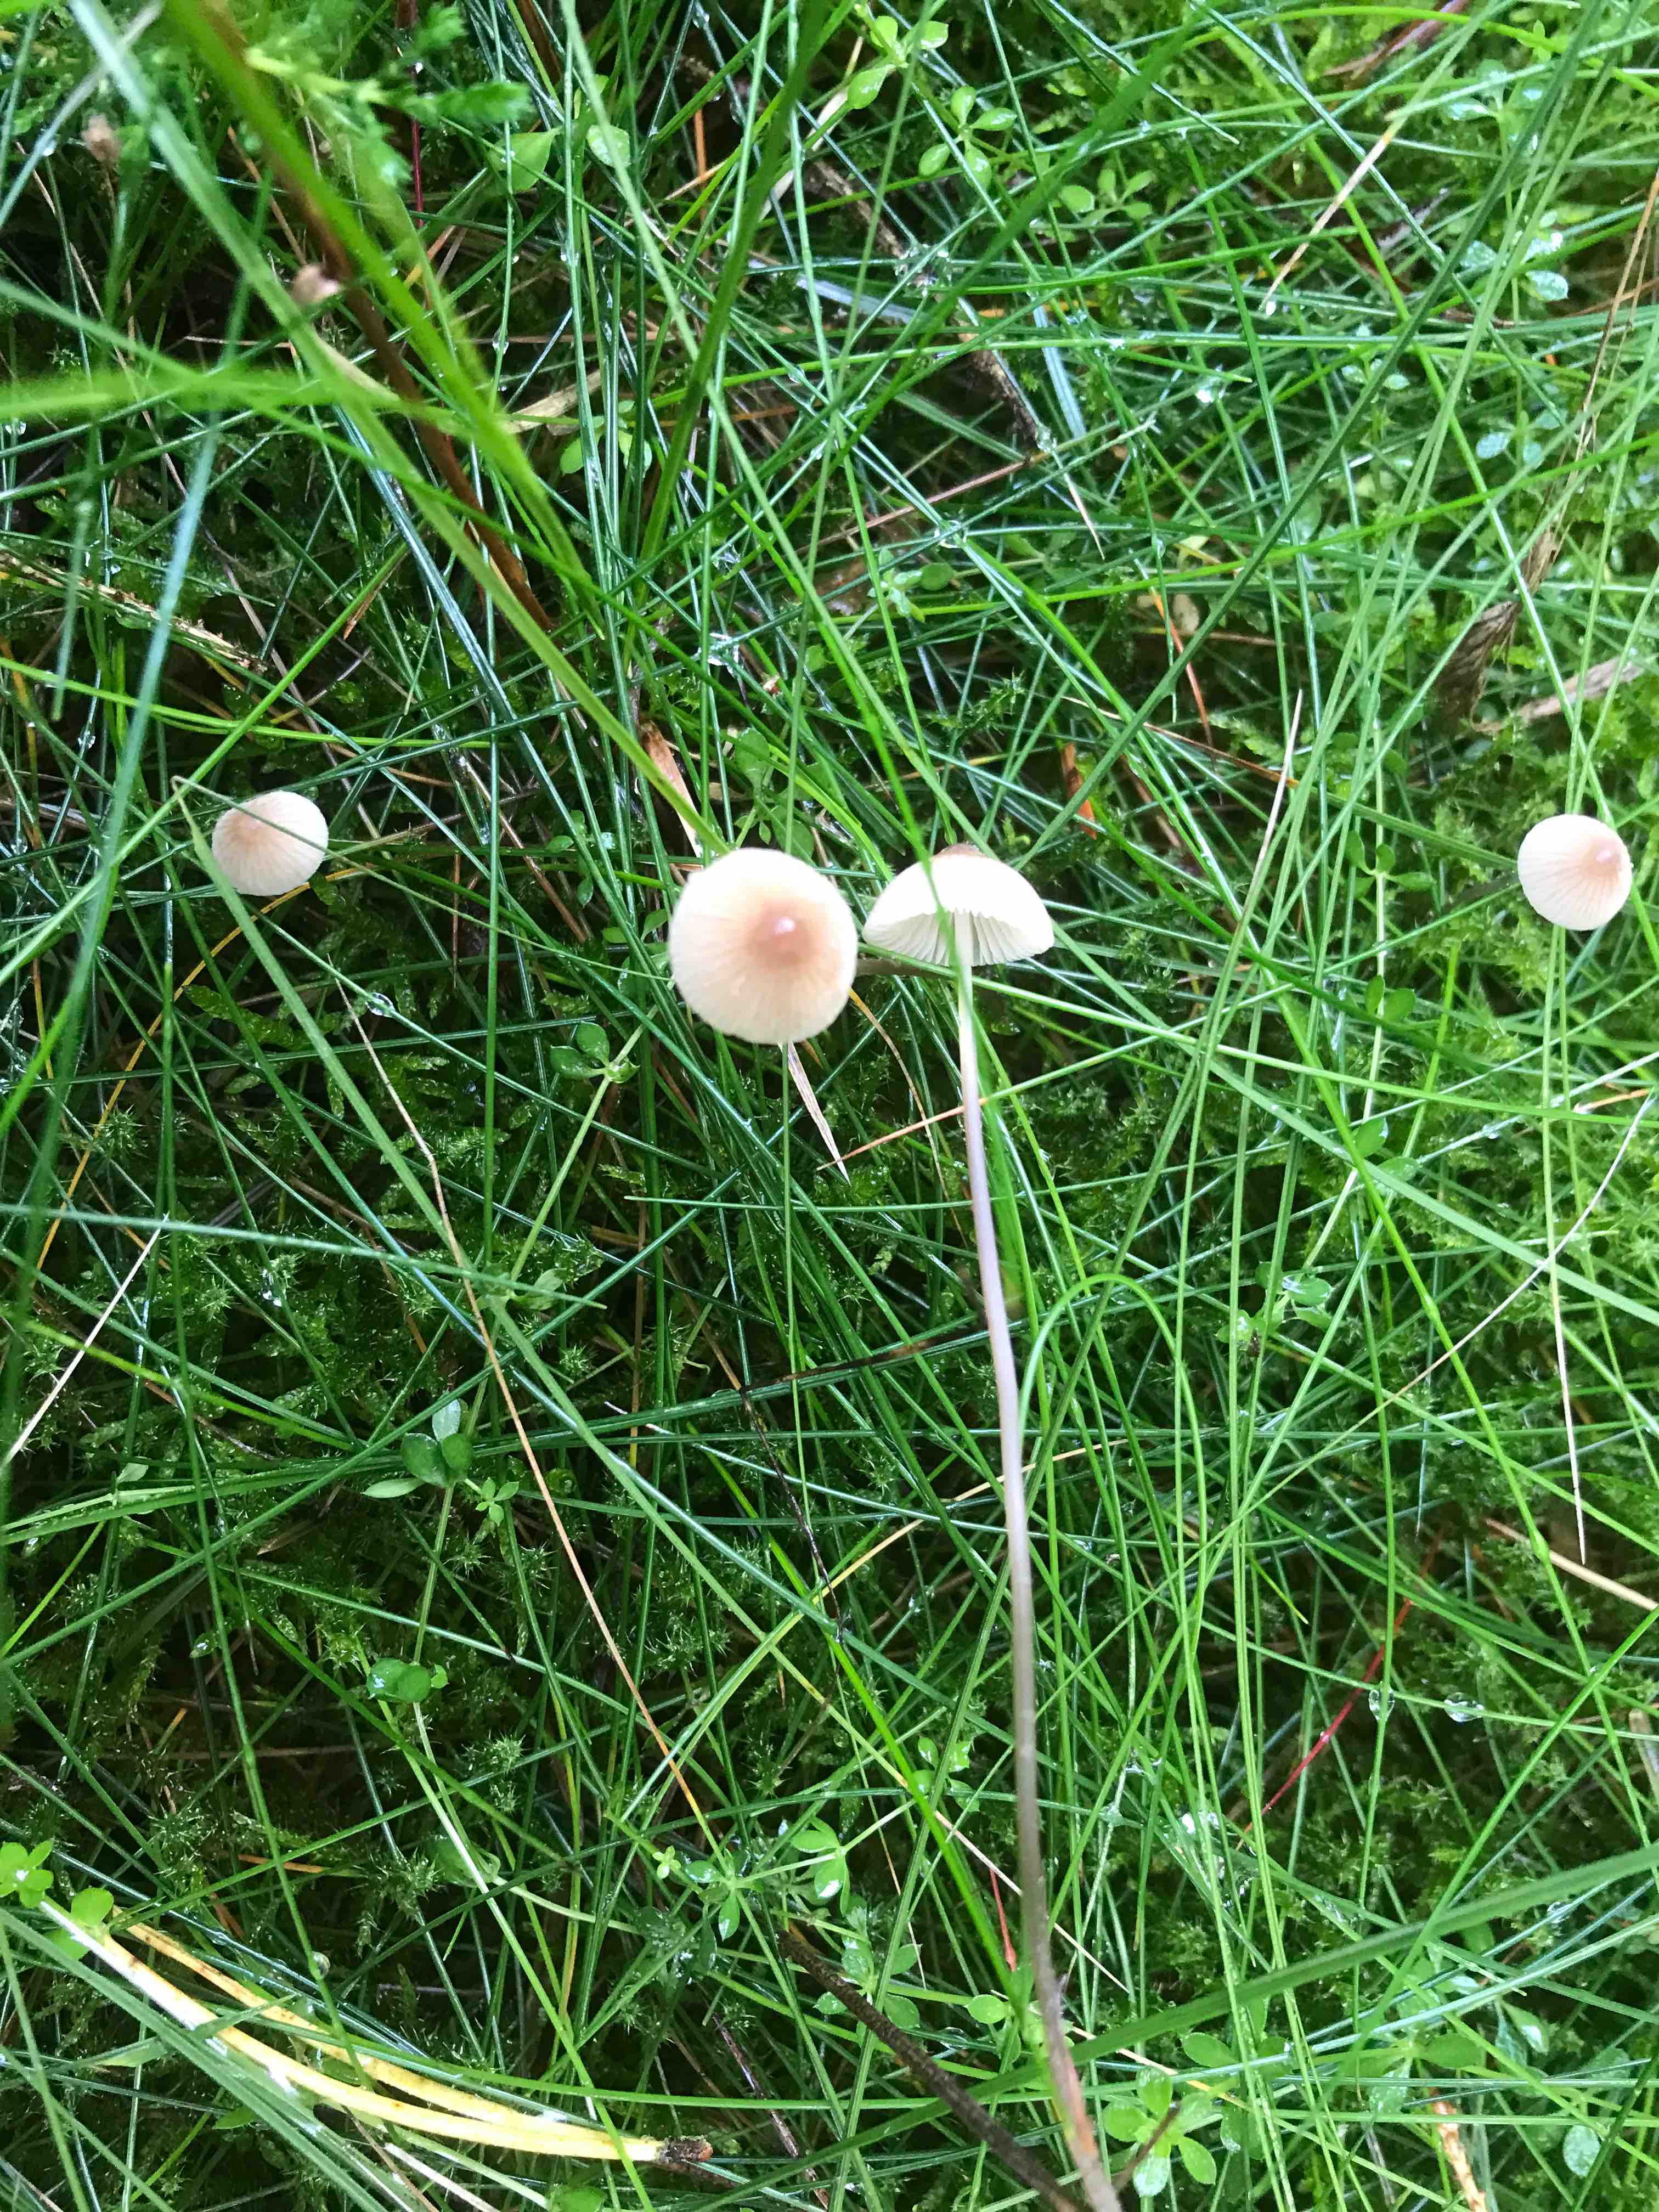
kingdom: Fungi
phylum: Basidiomycota
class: Agaricomycetes
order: Agaricales
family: Mycenaceae
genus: Mycena
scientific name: Mycena metata
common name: rødlig huesvamp
